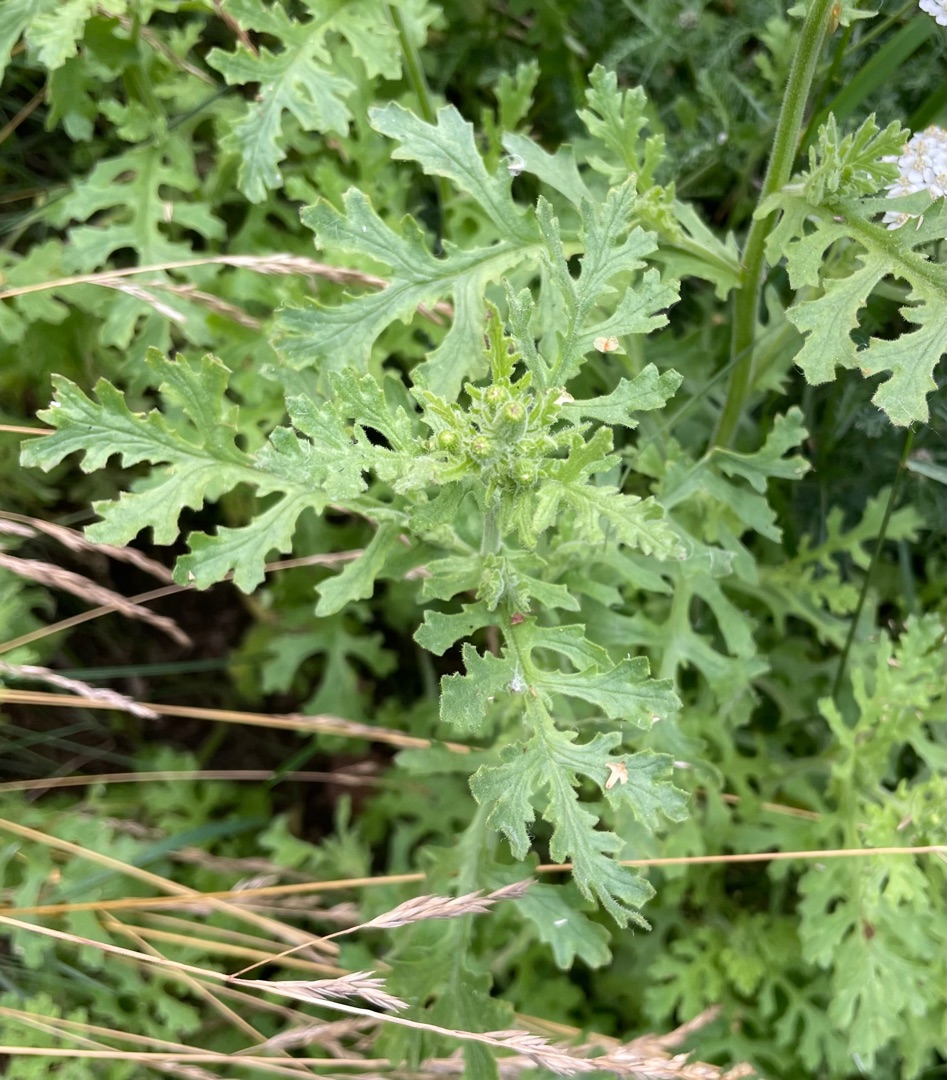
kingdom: Plantae
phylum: Tracheophyta
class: Magnoliopsida
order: Asterales
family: Asteraceae
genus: Senecio
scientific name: Senecio sylvaticus
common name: Skov-brandbæger
